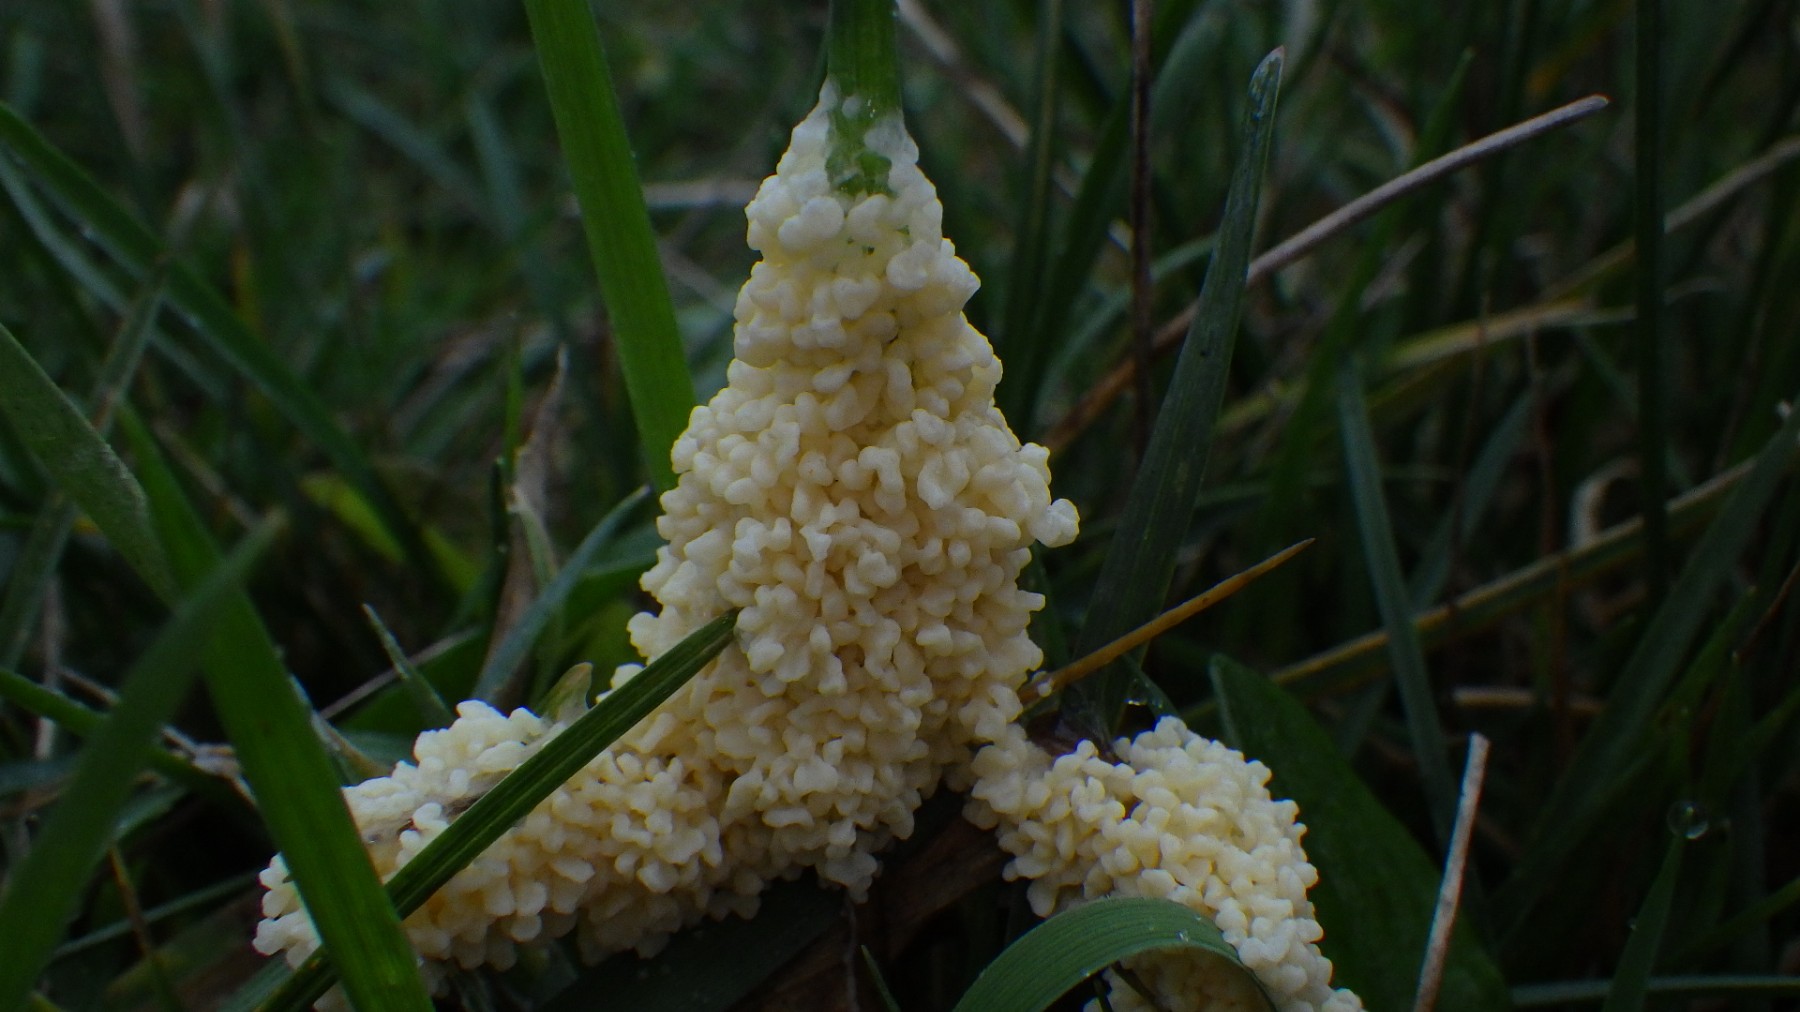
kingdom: Protozoa
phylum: Mycetozoa
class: Myxomycetes
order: Physarales
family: Physaraceae
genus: Didymium
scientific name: Didymium
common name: urteskum
